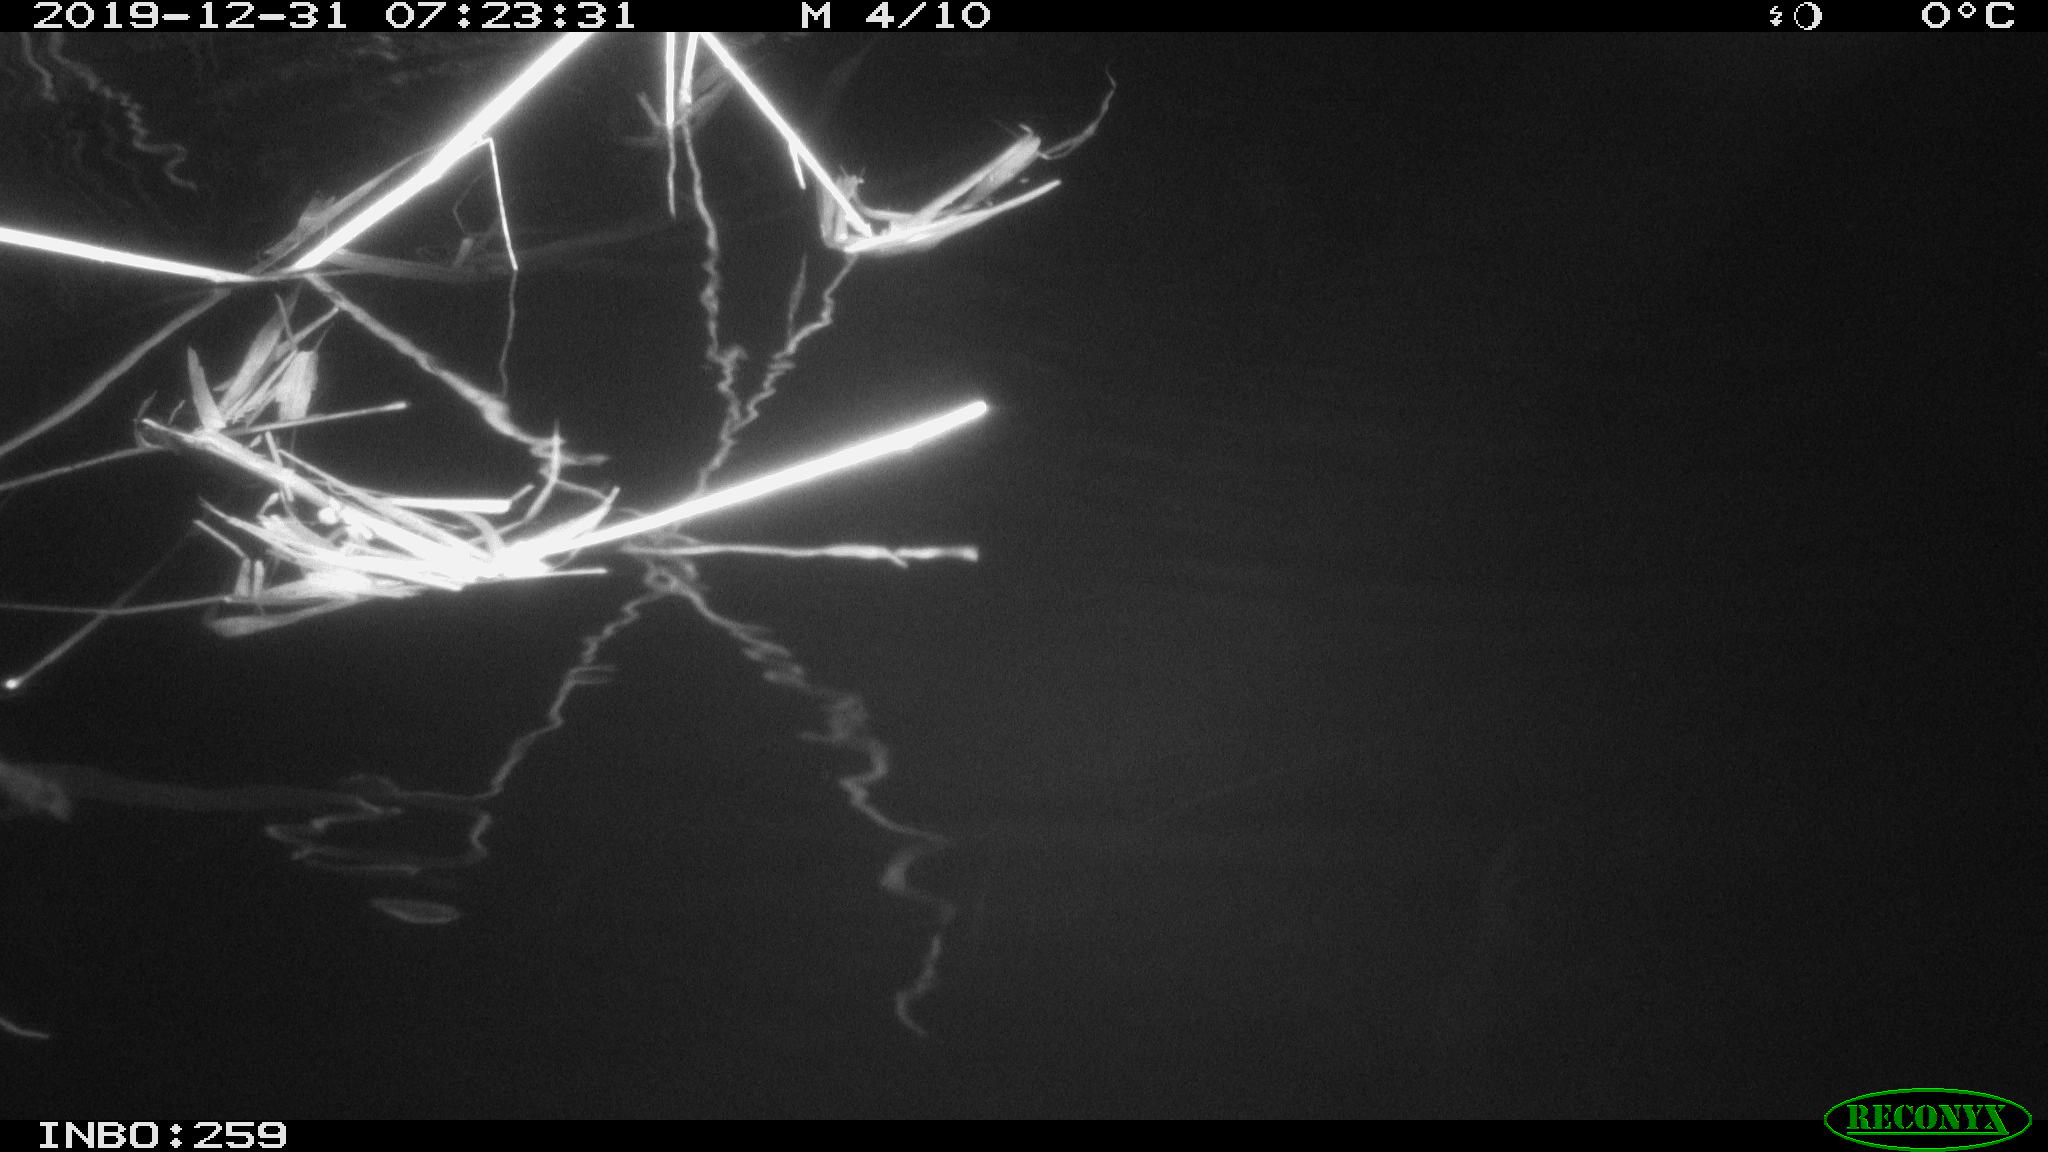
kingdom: Animalia
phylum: Chordata
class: Mammalia
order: Rodentia
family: Cricetidae
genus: Ondatra
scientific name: Ondatra zibethicus
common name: Muskrat
